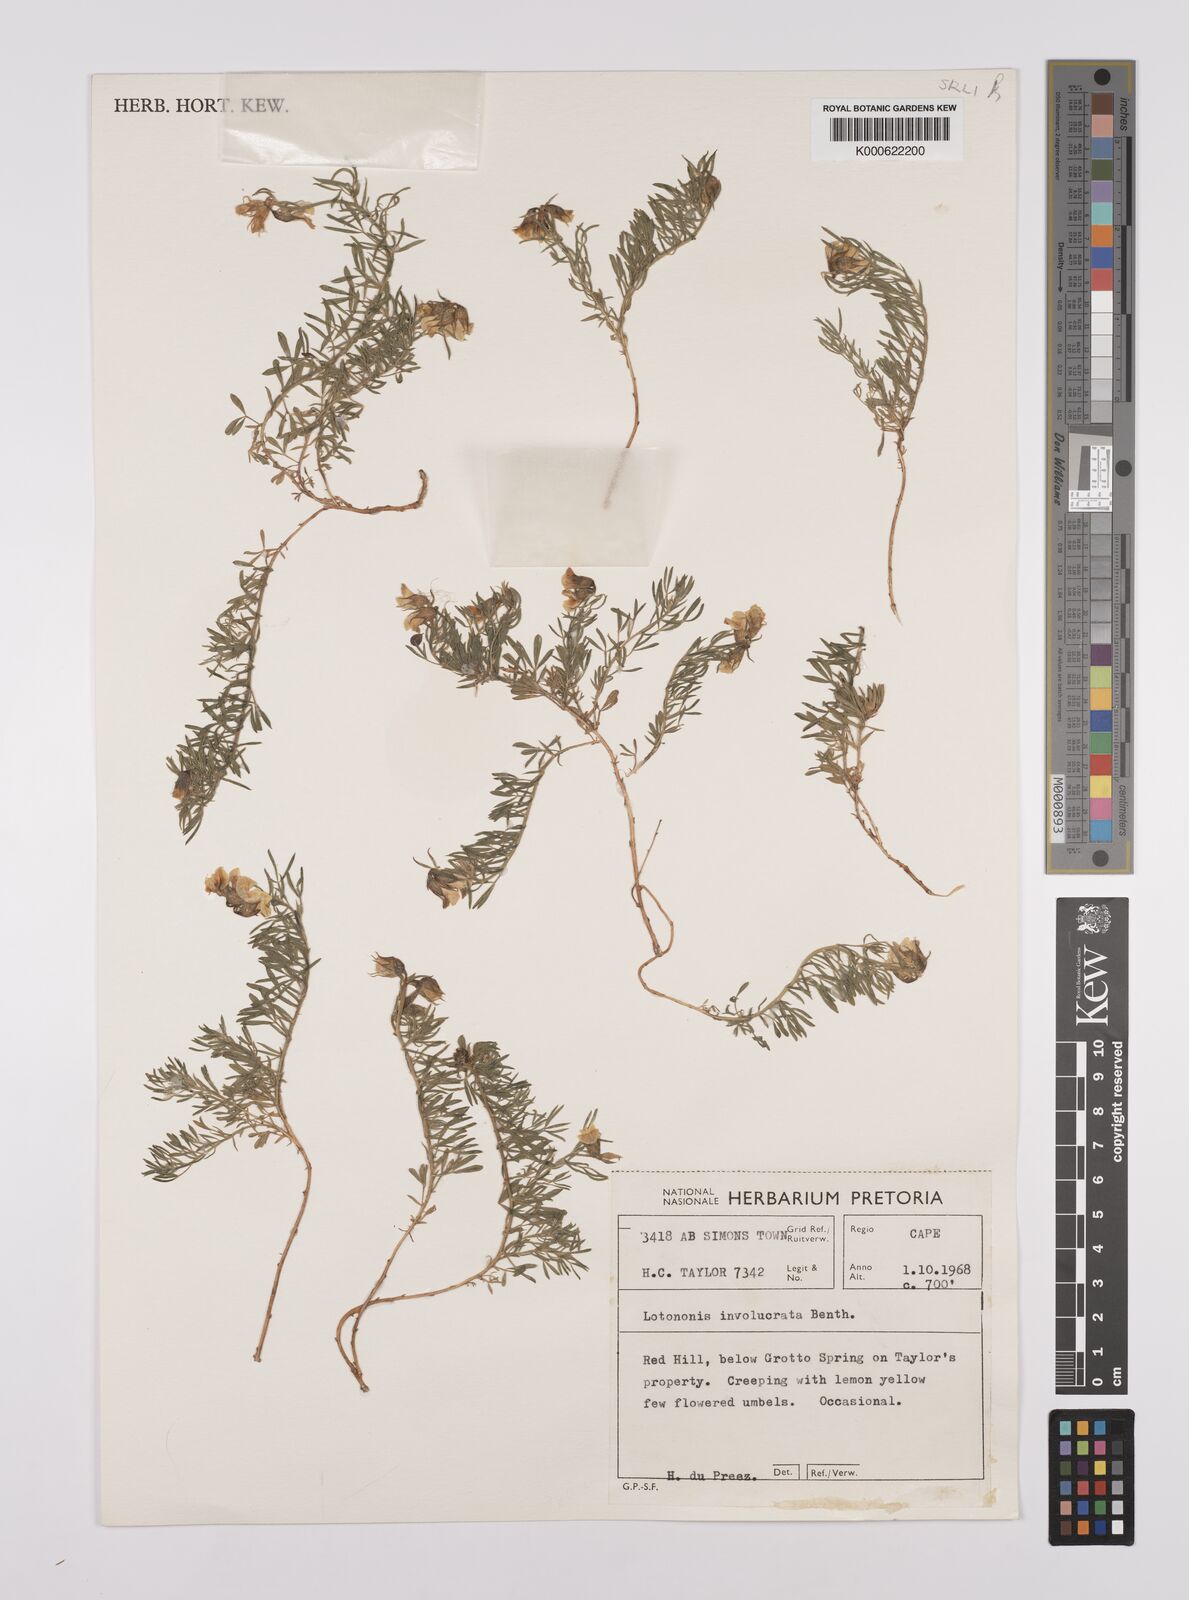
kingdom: Plantae
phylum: Tracheophyta
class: Magnoliopsida
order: Fabales
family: Fabaceae
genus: Lotononis
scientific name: Lotononis involucrata
